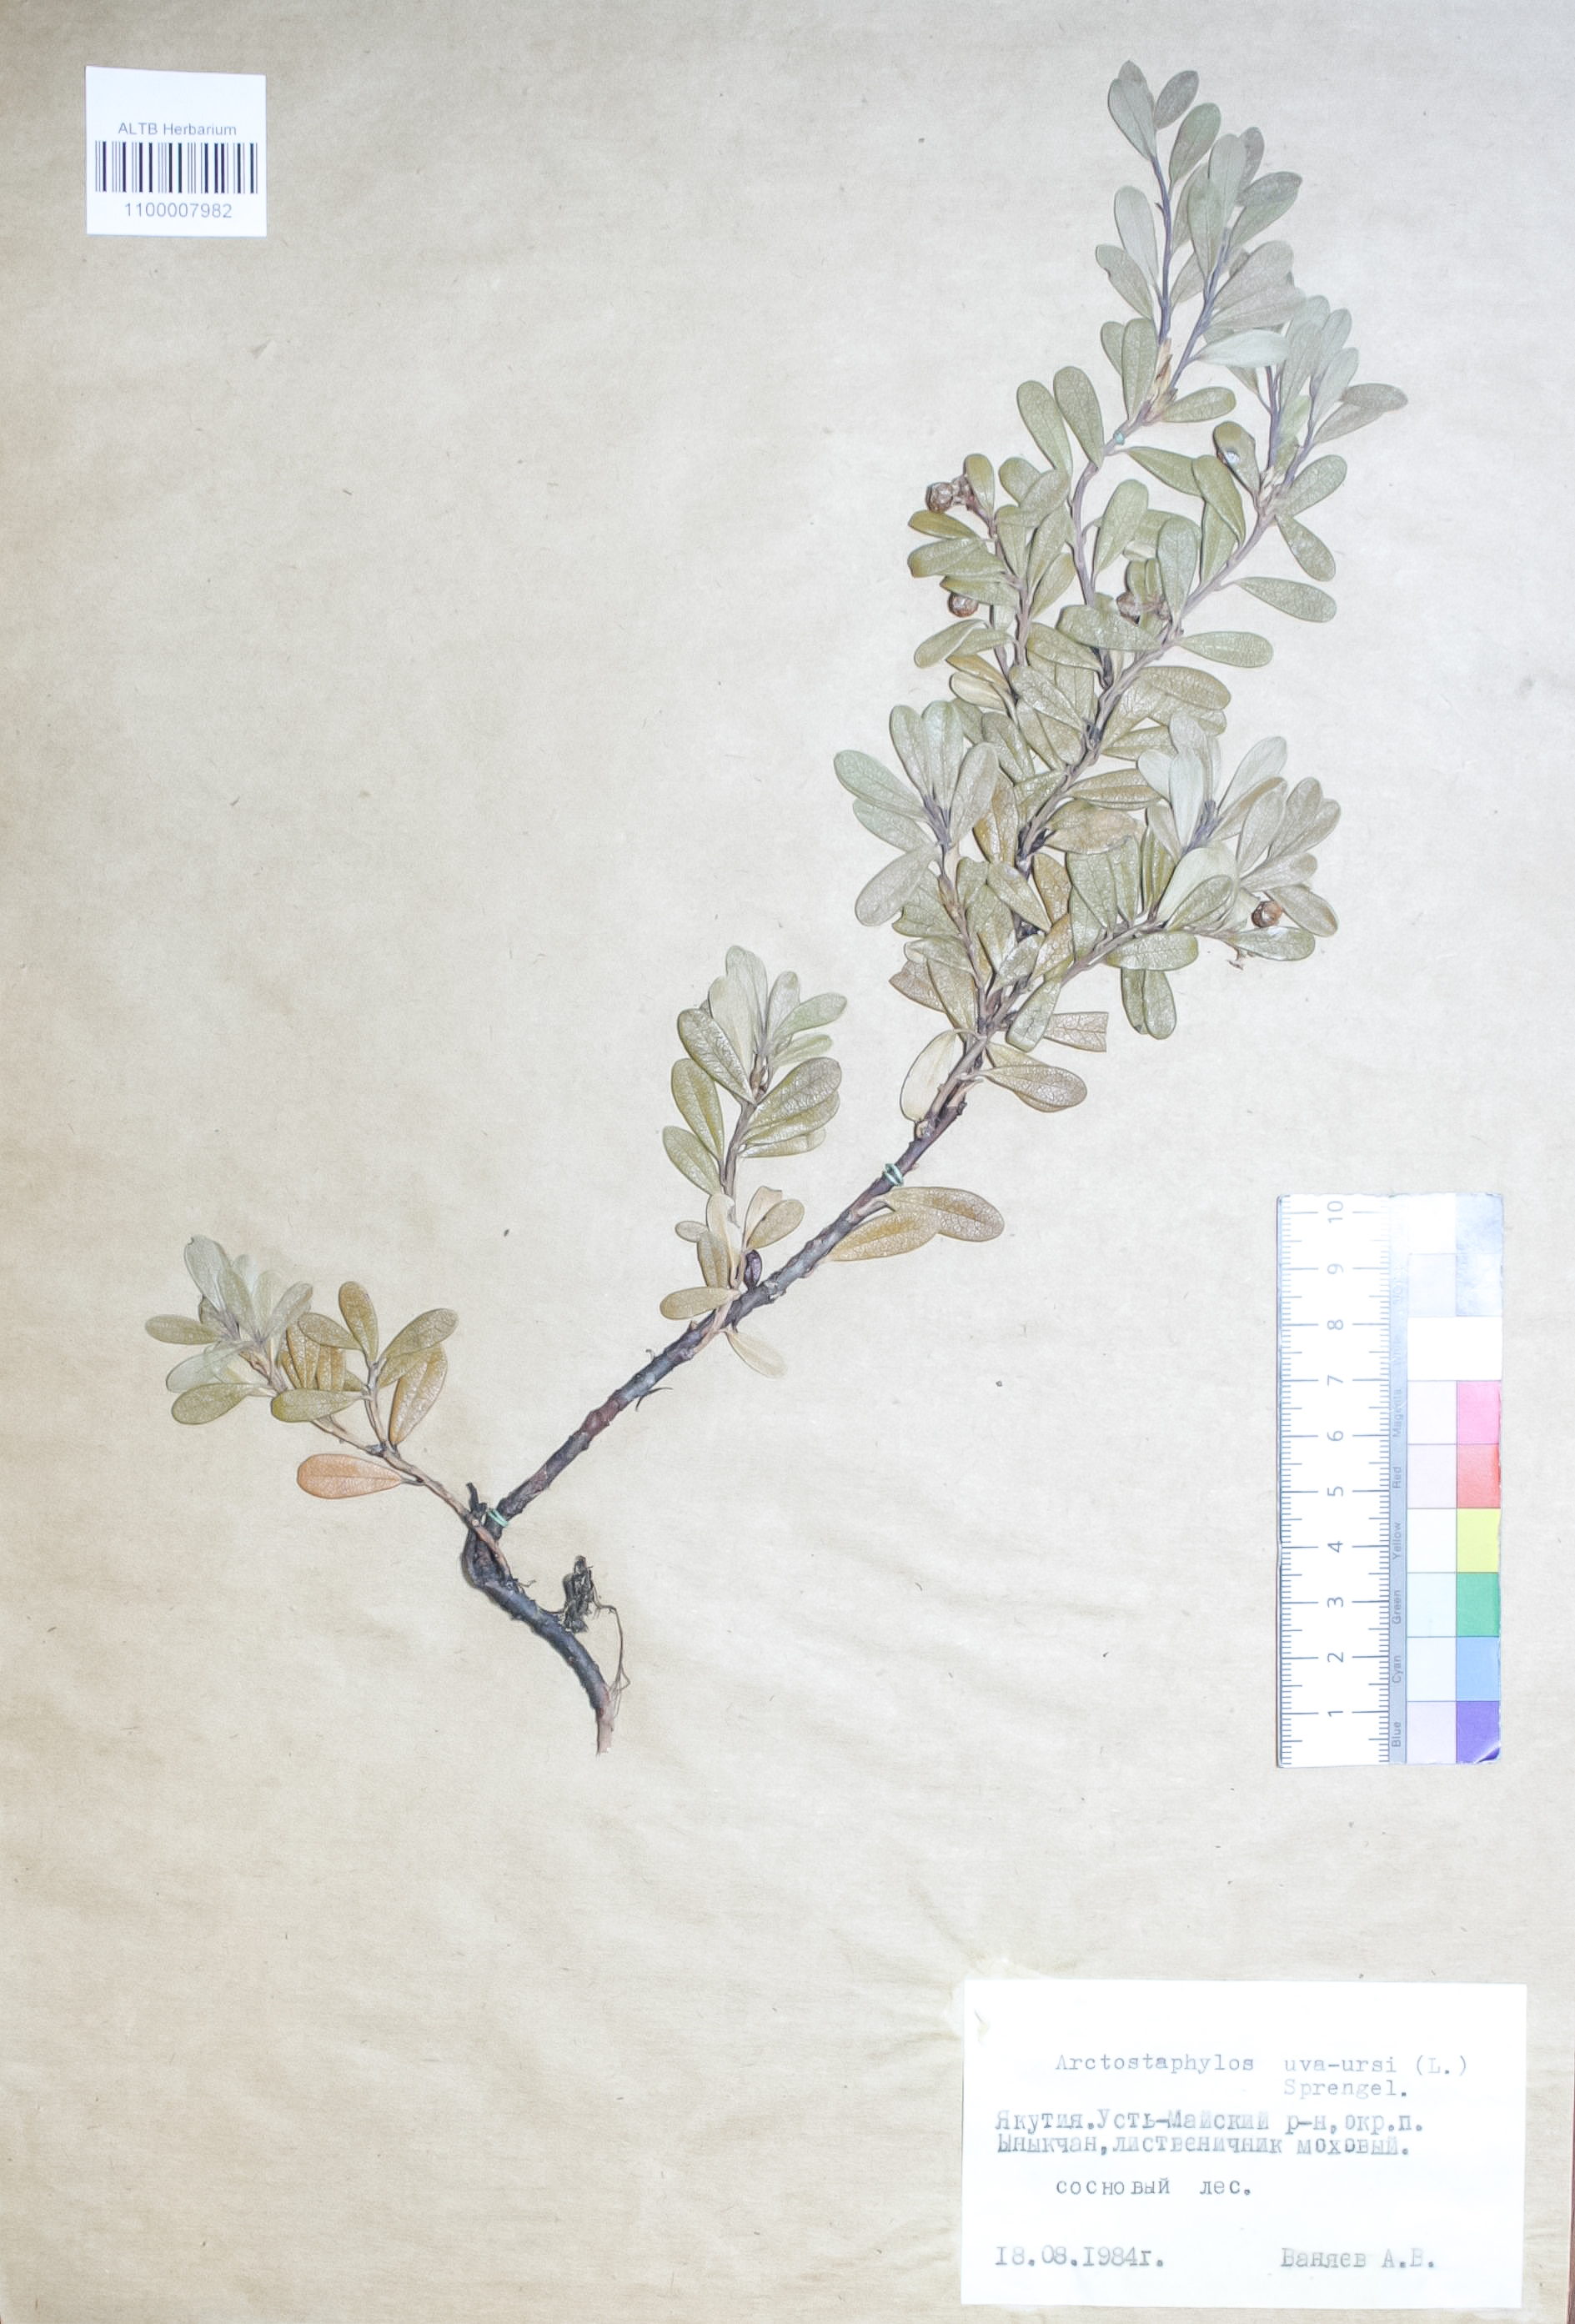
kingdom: Plantae
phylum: Tracheophyta
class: Magnoliopsida
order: Ericales
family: Ericaceae
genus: Arctostaphylos
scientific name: Arctostaphylos uva-ursi
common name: Bearberry
